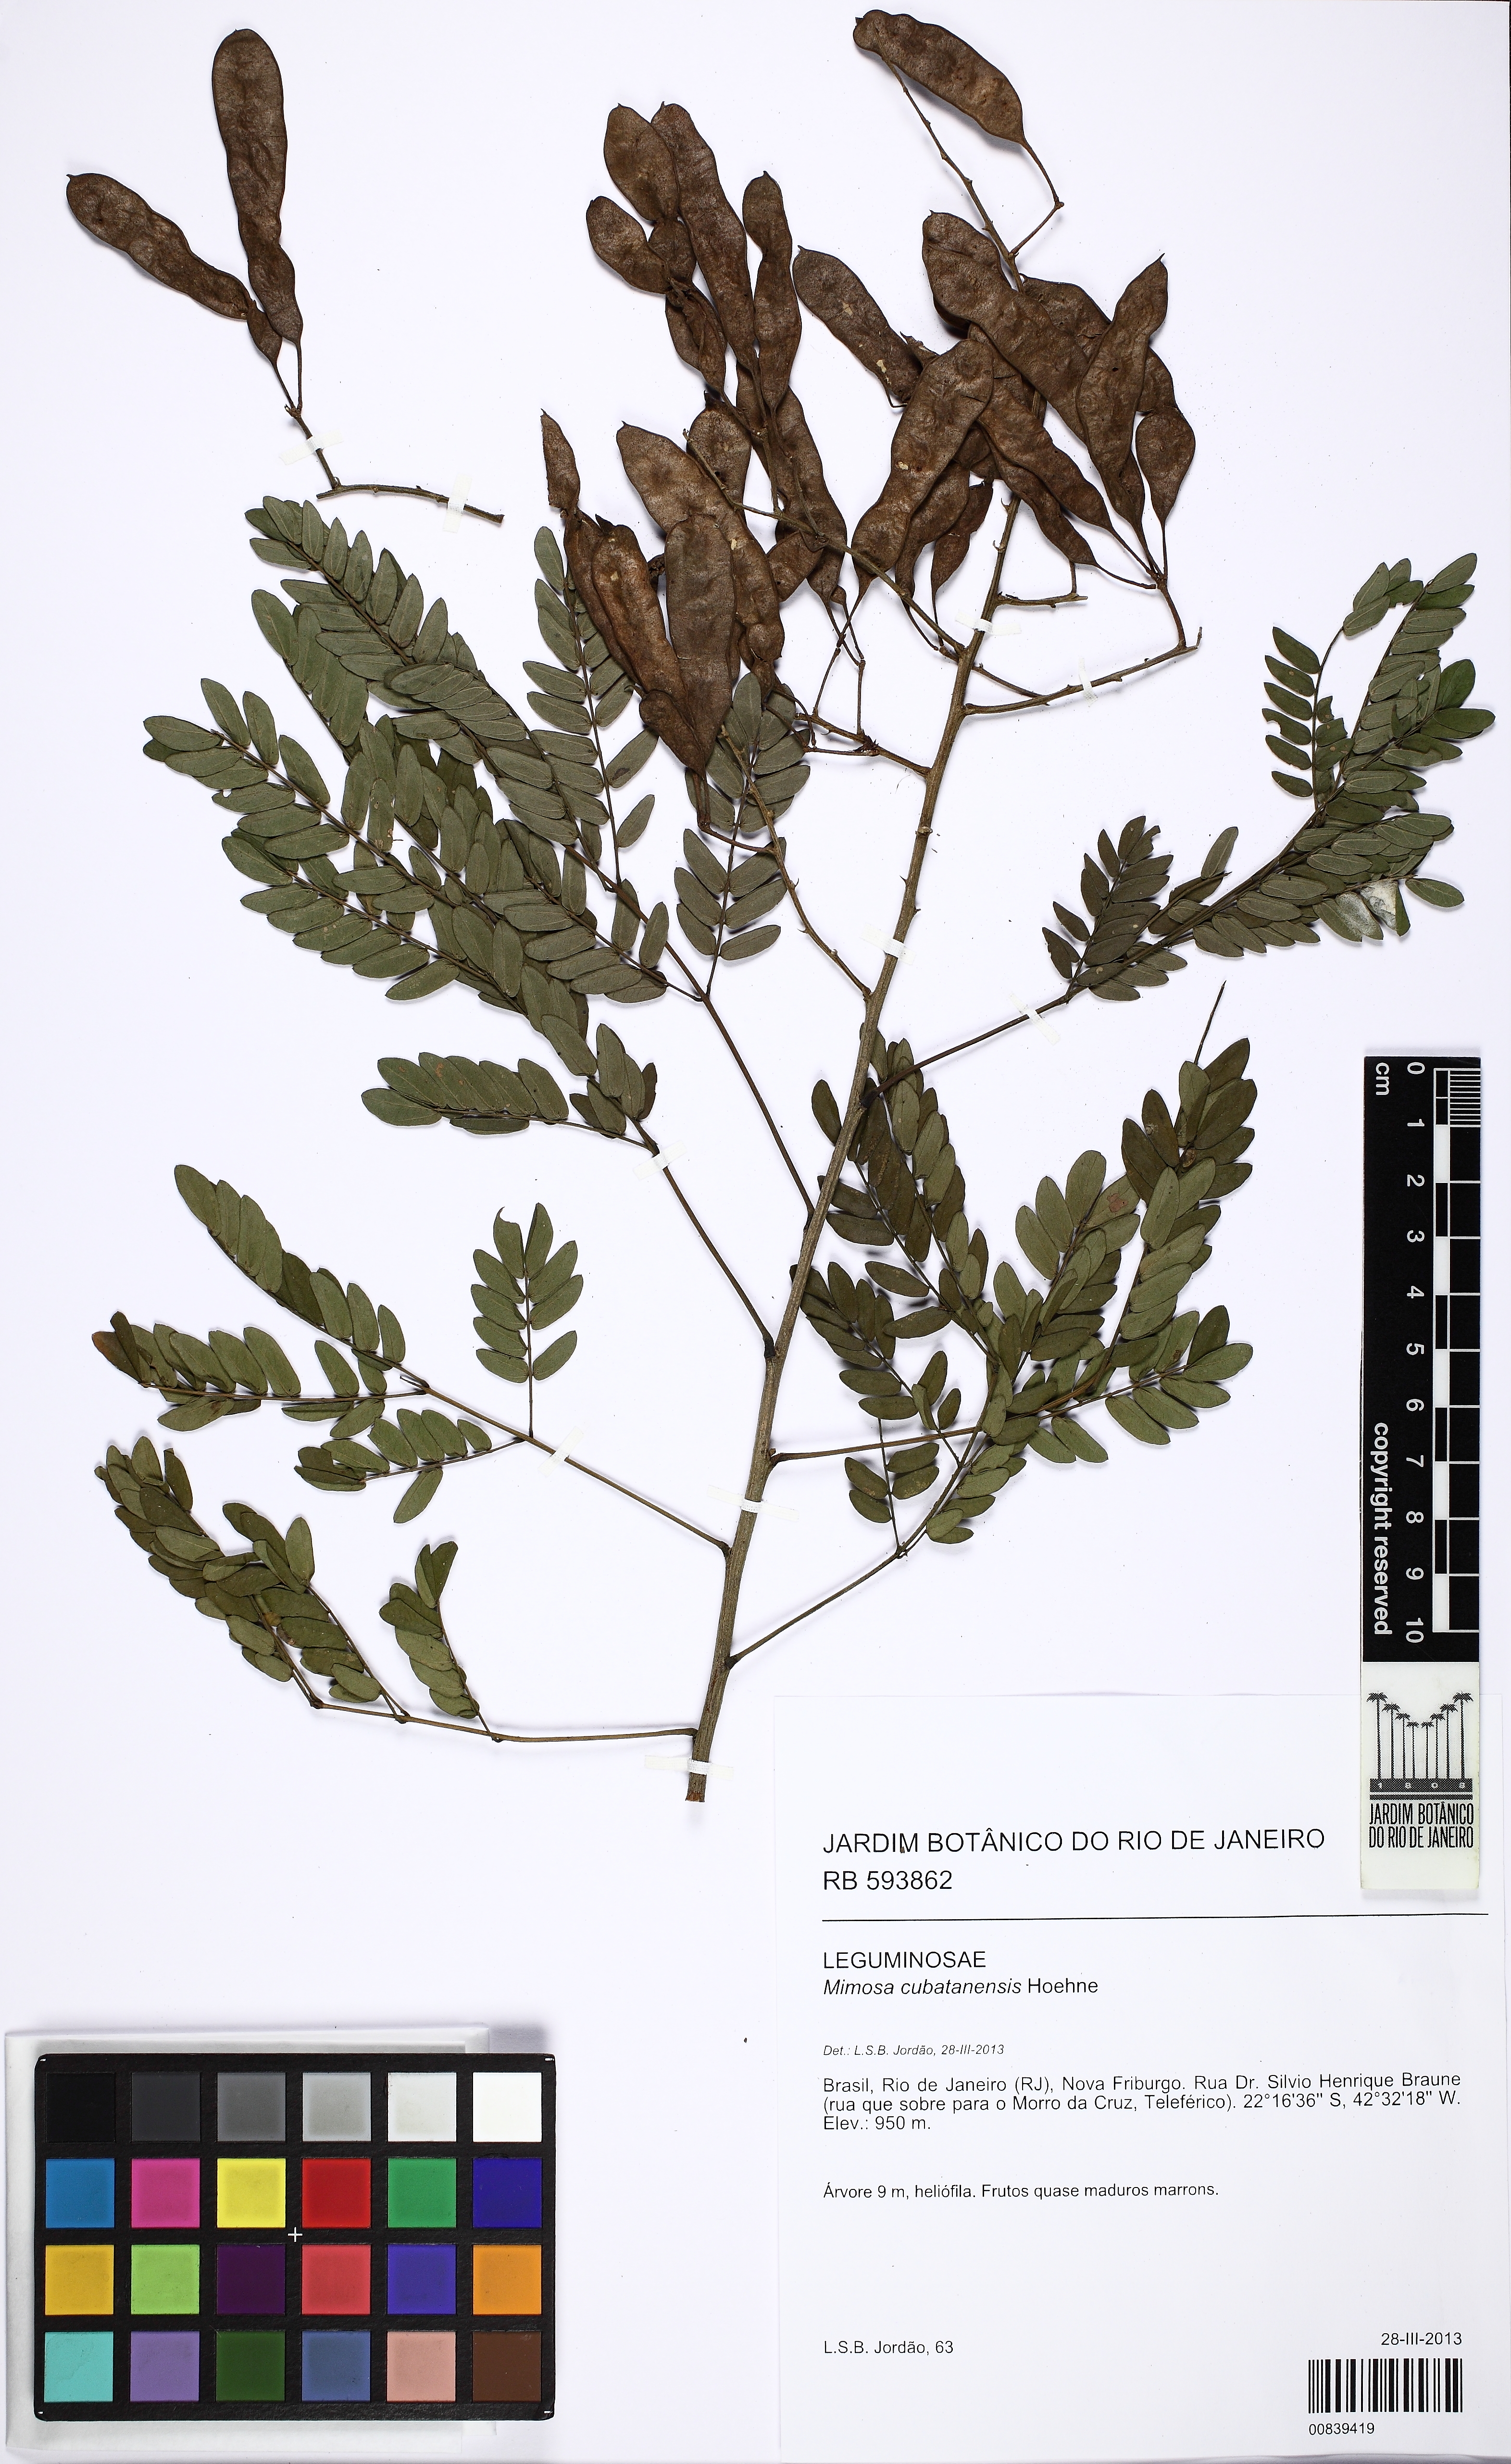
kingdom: Plantae
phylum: Tracheophyta
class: Magnoliopsida
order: Fabales
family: Fabaceae
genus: Mimosa
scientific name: Mimosa cubatanensis
